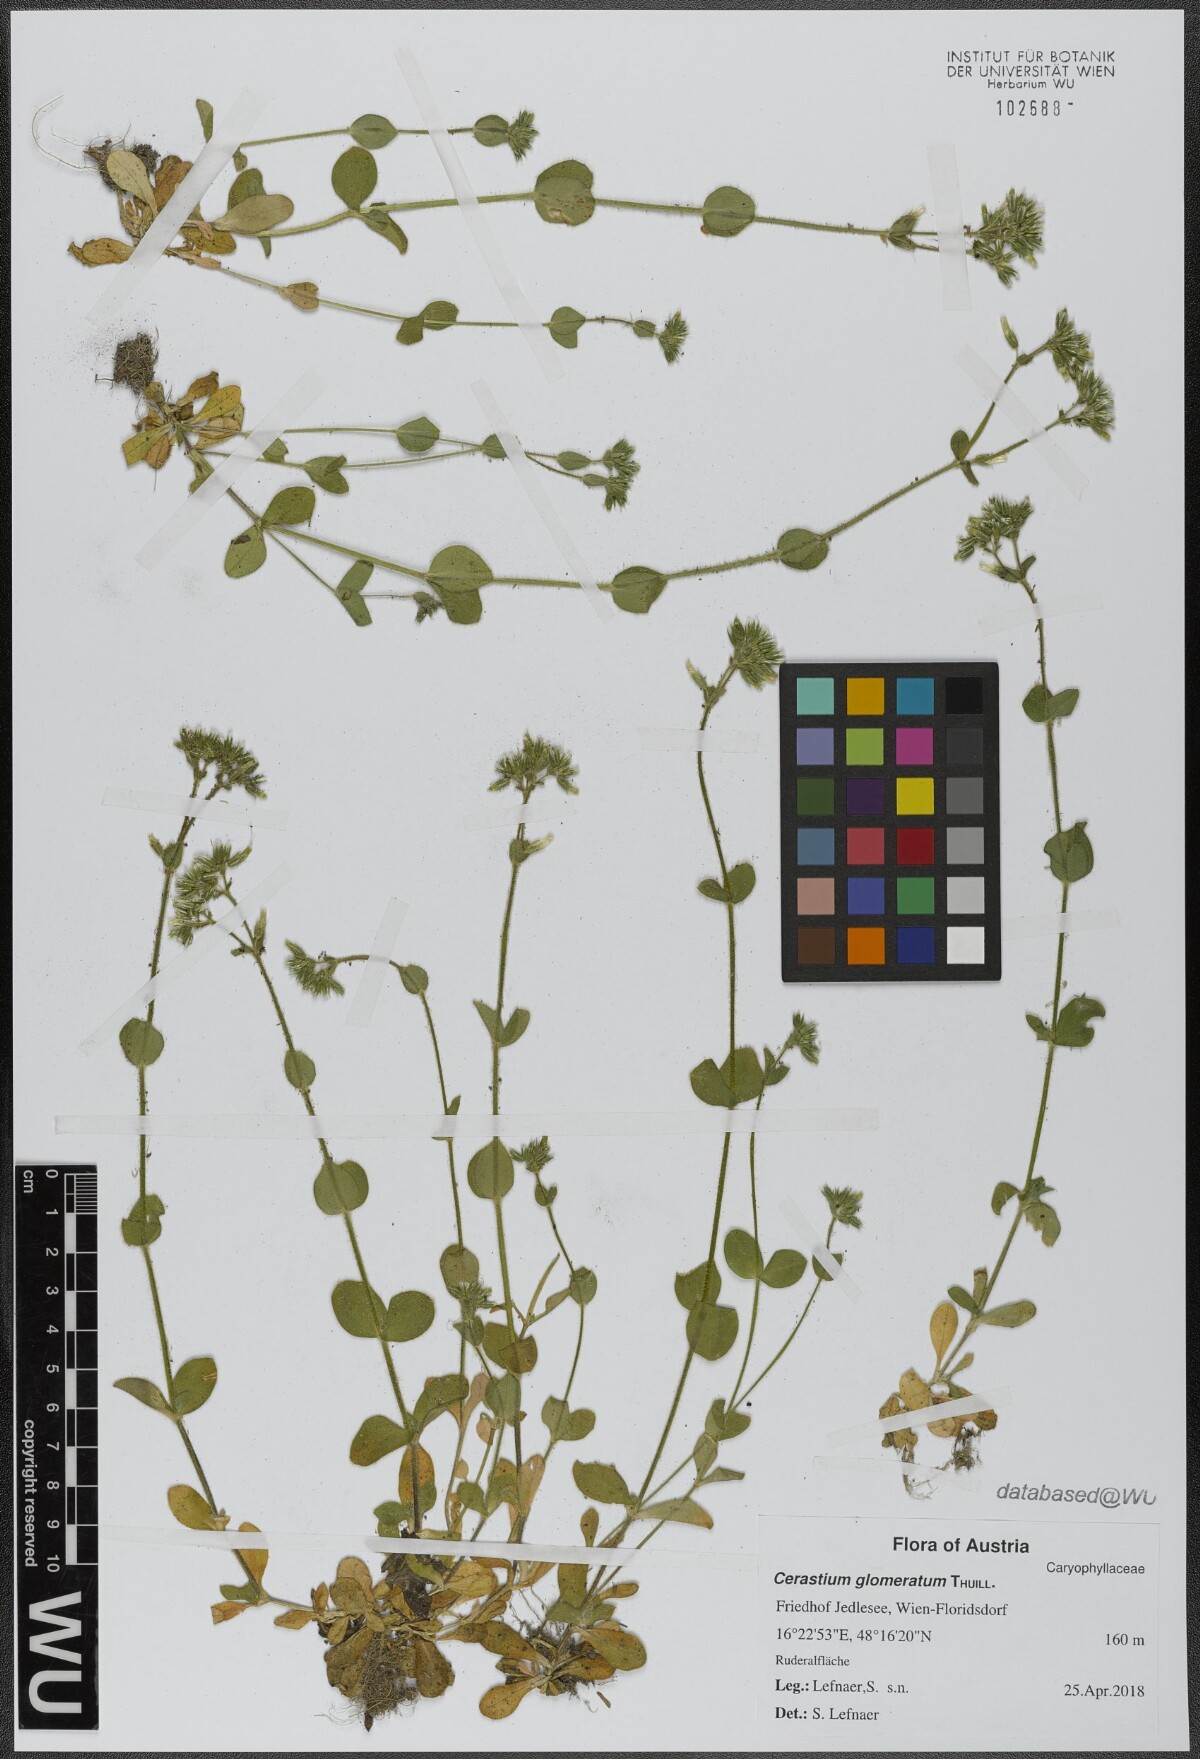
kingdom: Plantae
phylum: Tracheophyta
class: Magnoliopsida
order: Caryophyllales
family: Caryophyllaceae
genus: Cerastium
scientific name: Cerastium glomeratum
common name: Sticky chickweed
